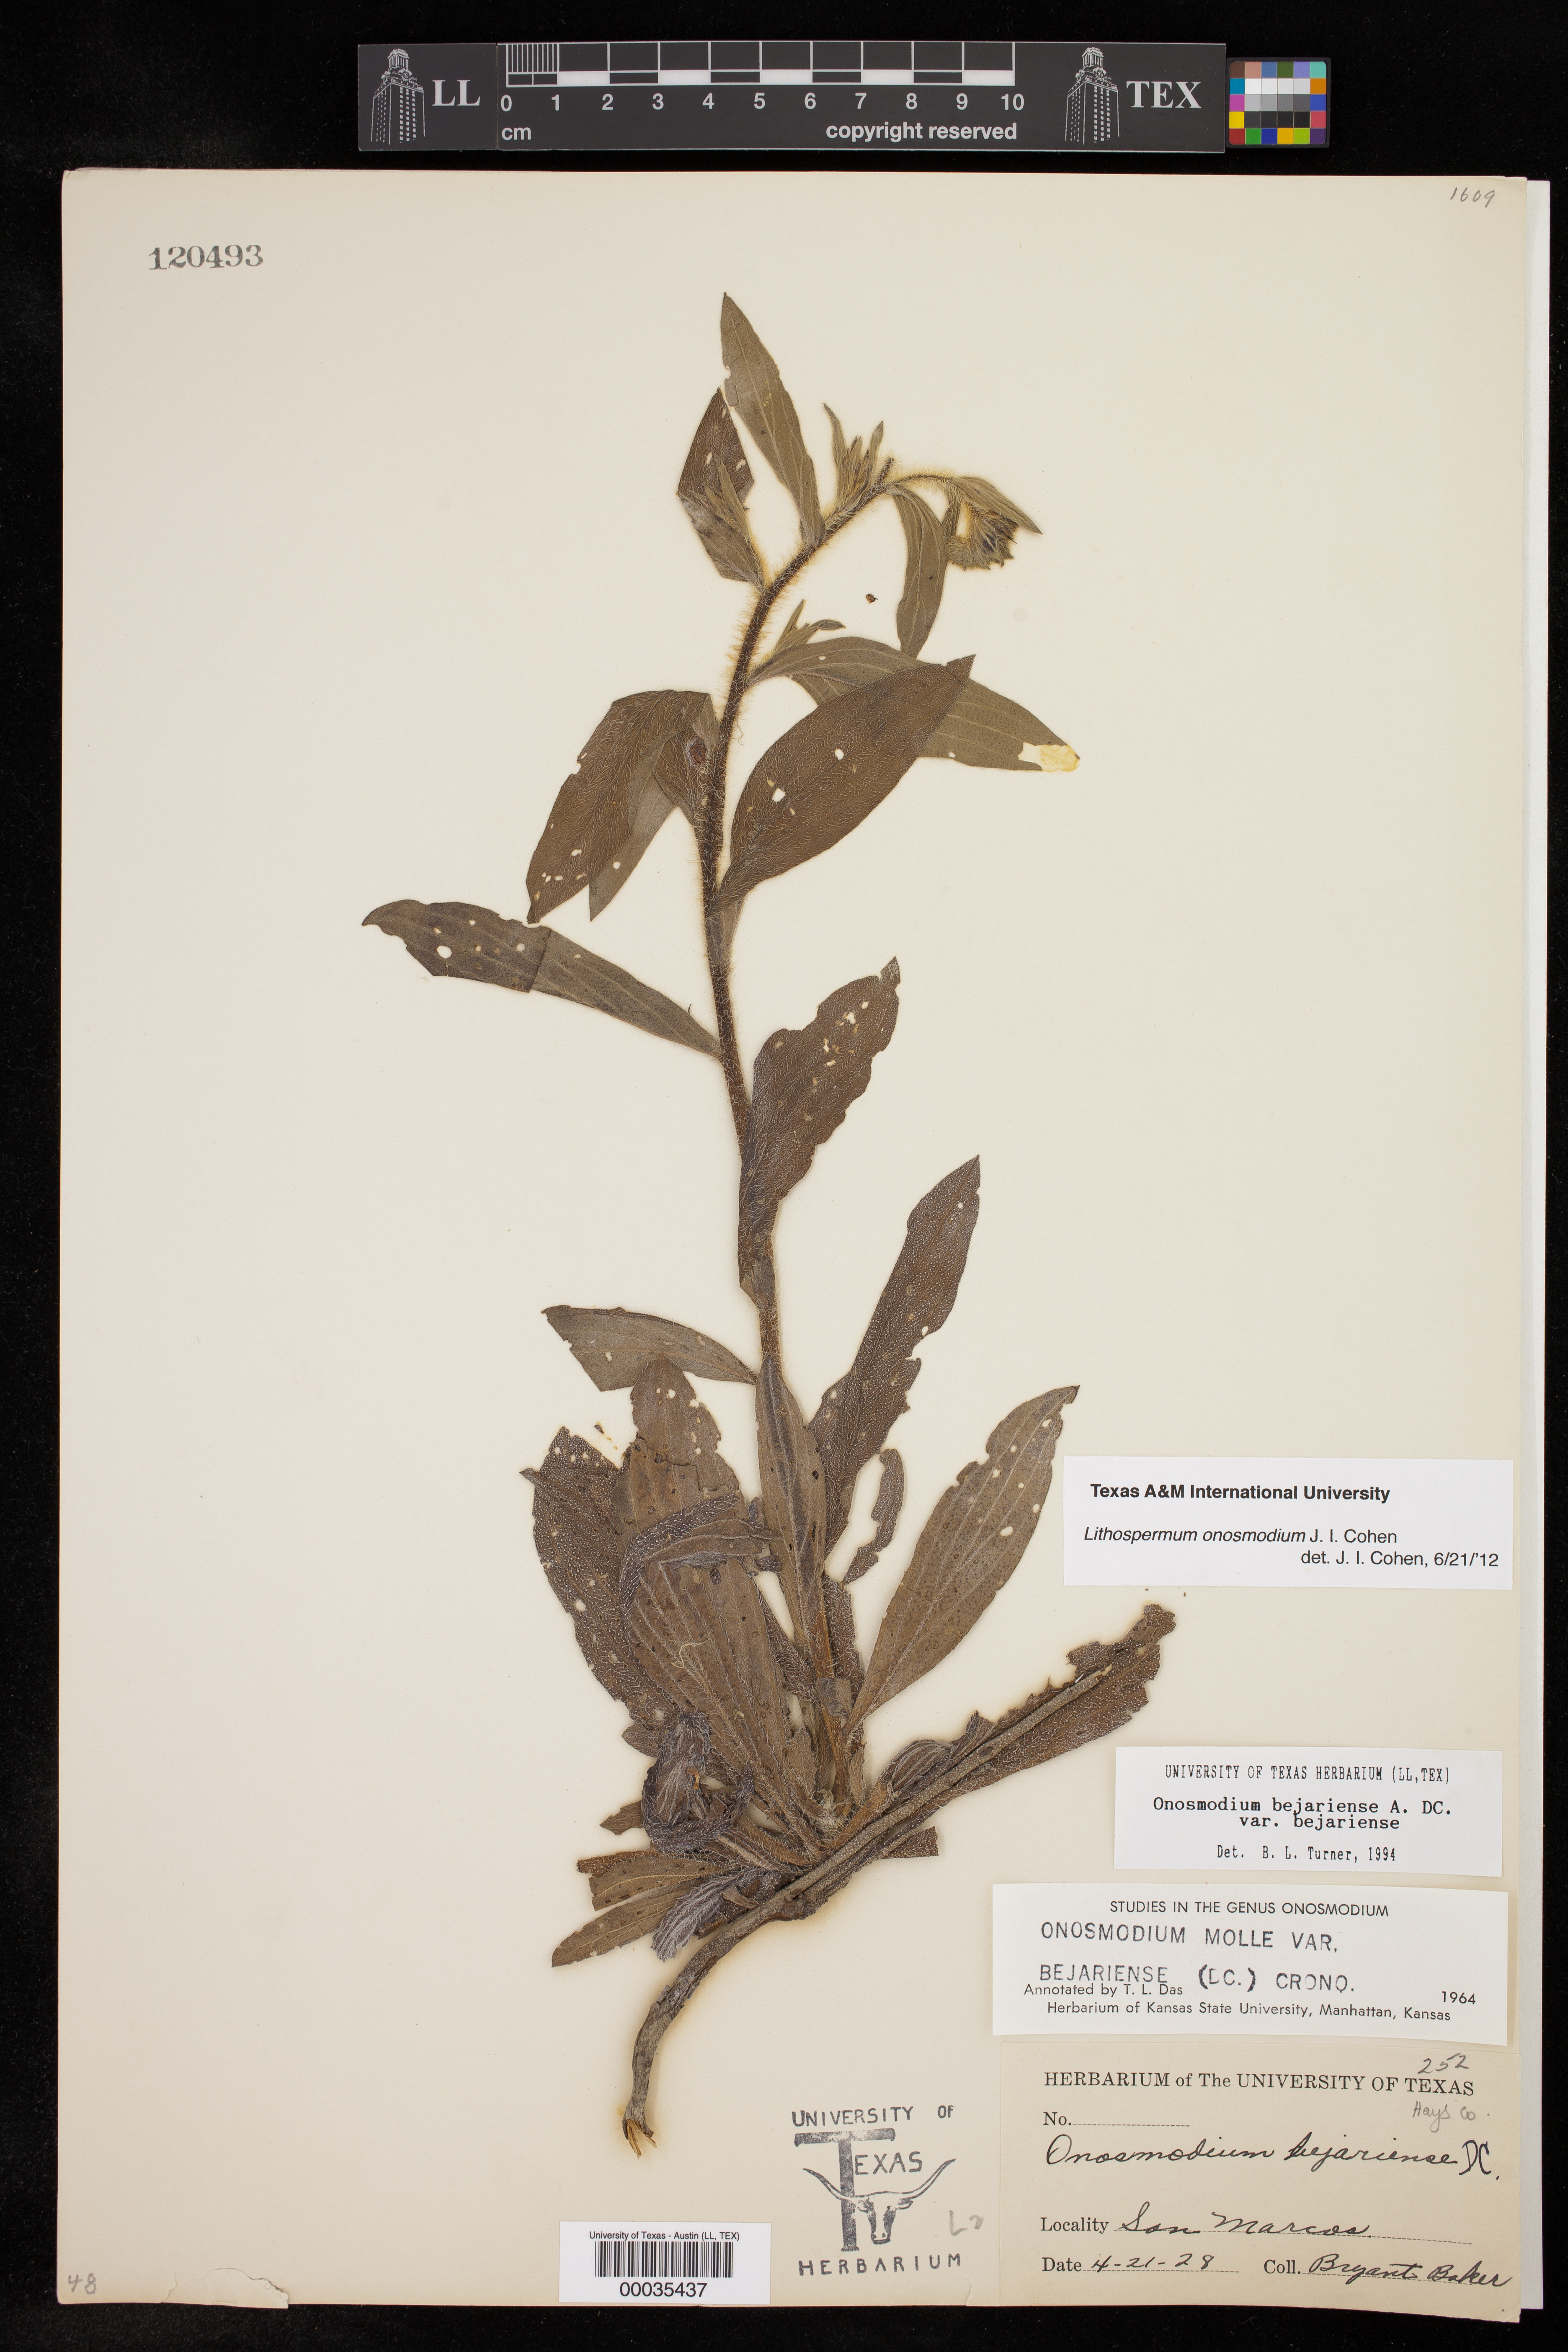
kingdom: Plantae
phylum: Tracheophyta
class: Magnoliopsida
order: Boraginales
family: Boraginaceae
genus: Lithospermum
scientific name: Lithospermum molle
